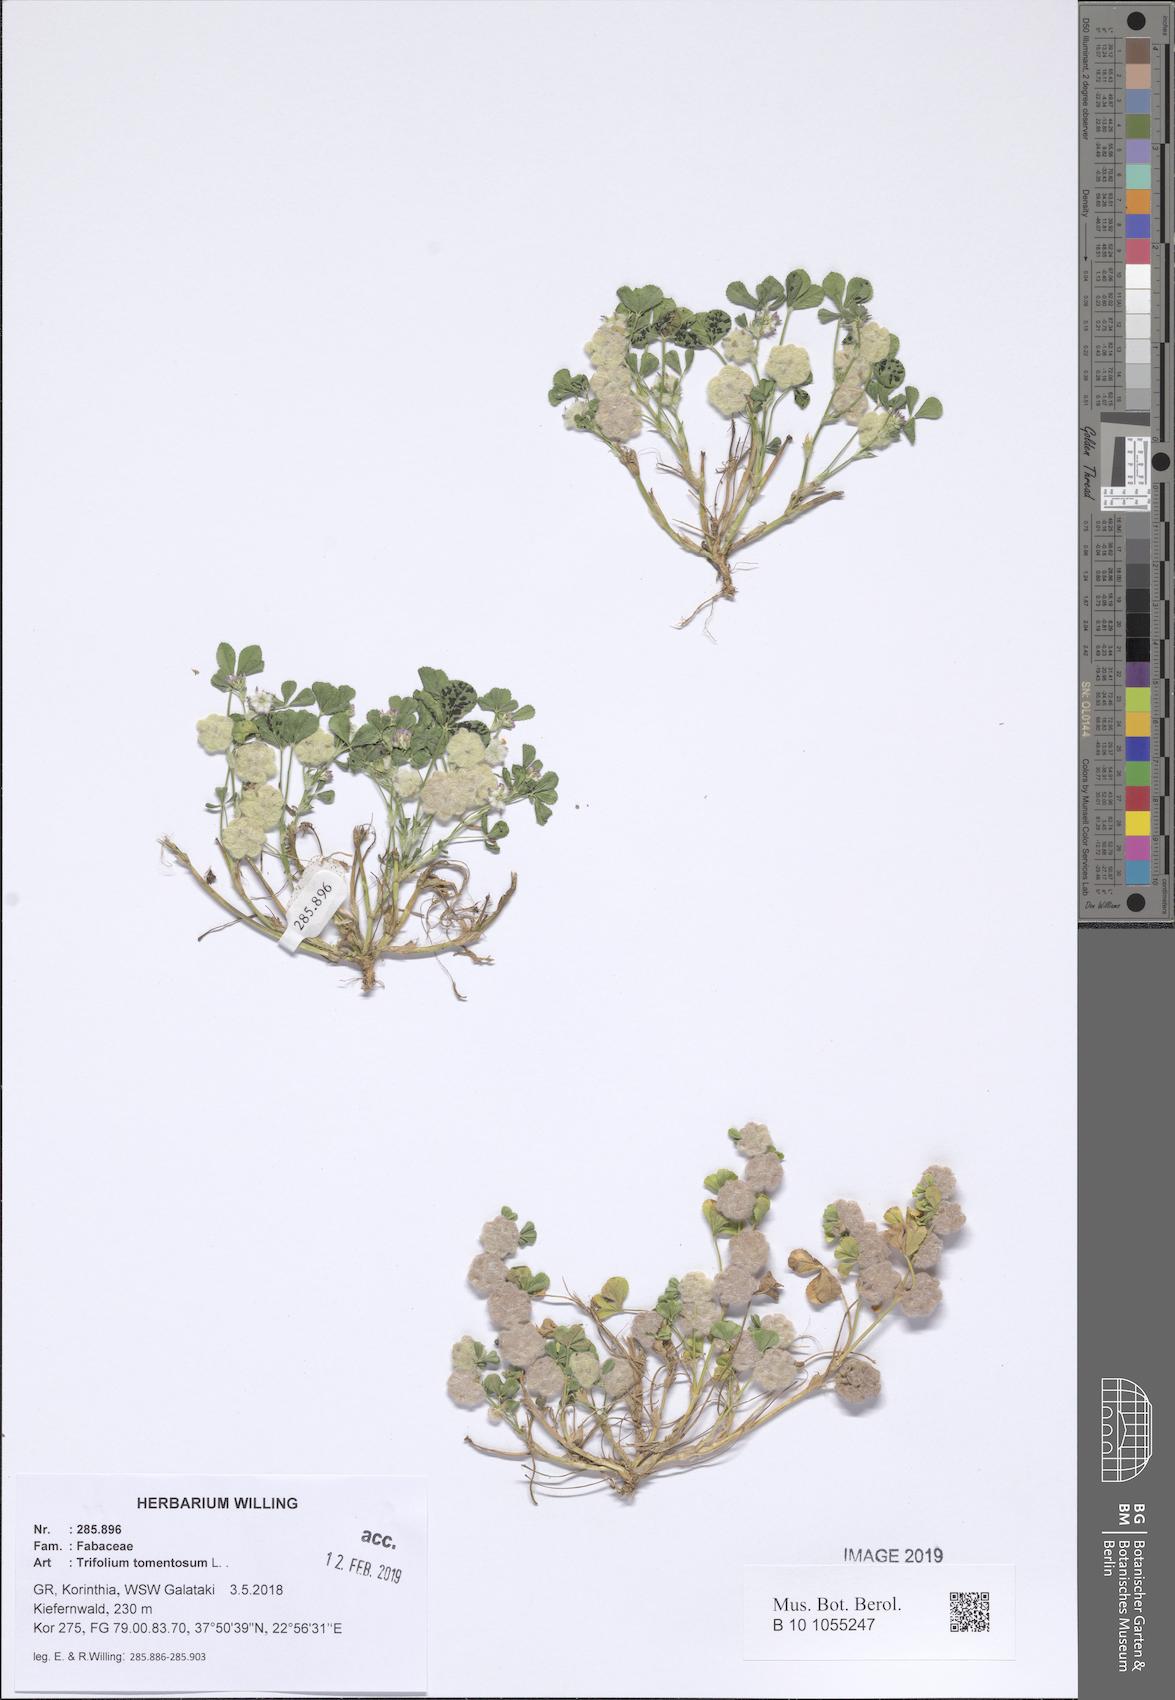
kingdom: Plantae
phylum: Tracheophyta
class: Magnoliopsida
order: Fabales
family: Fabaceae
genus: Trifolium
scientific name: Trifolium tomentosum
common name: Woolly clover
